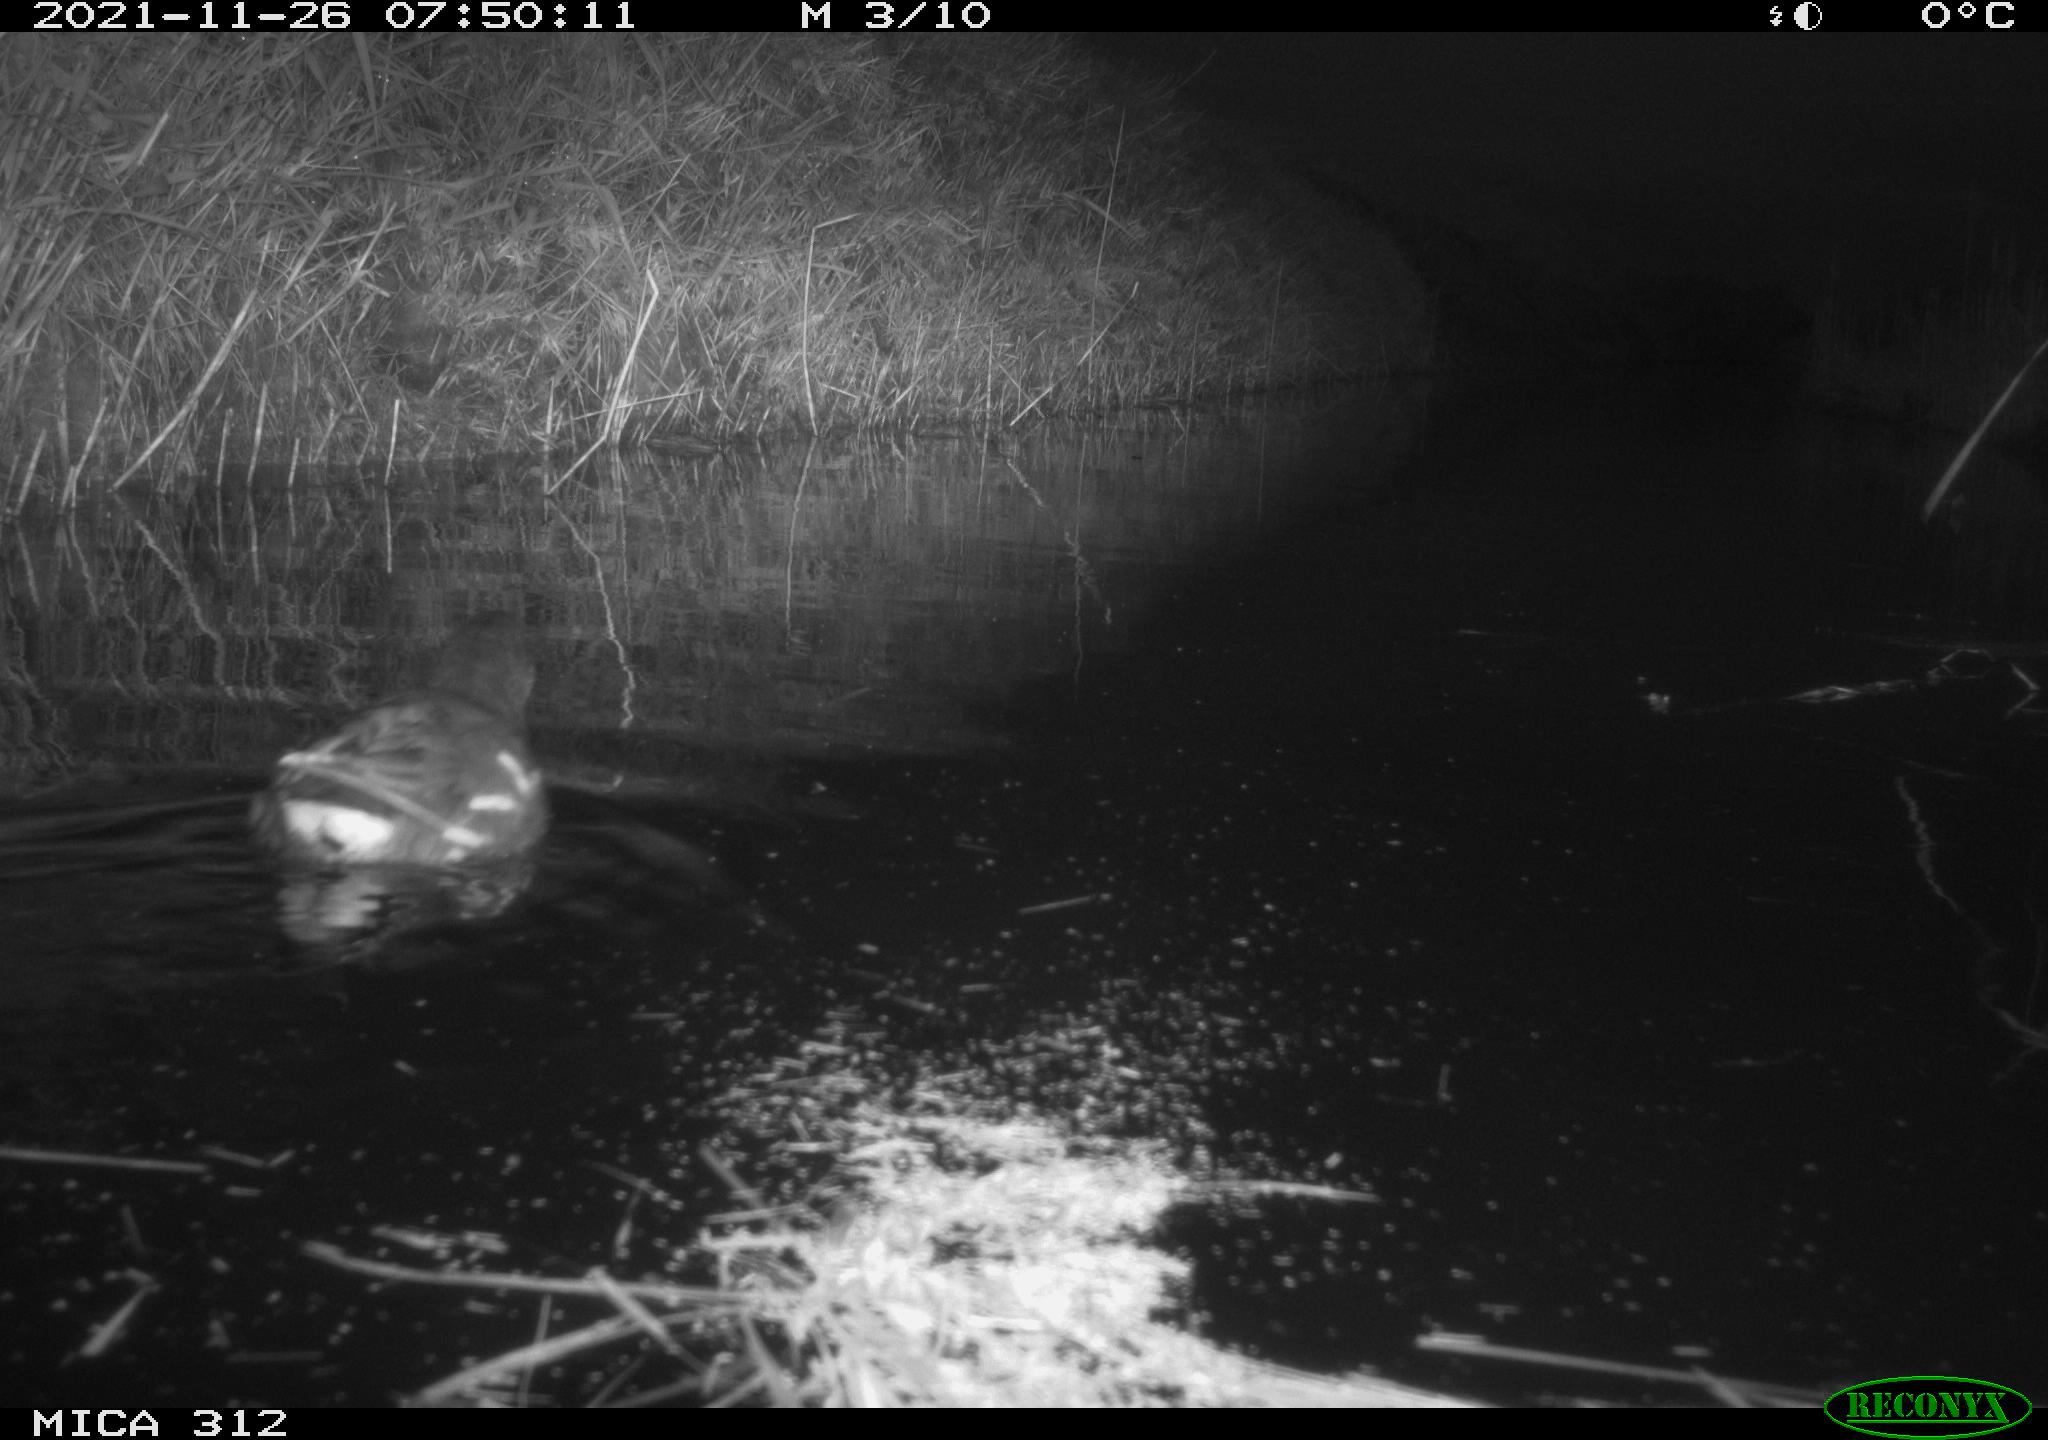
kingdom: Animalia
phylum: Chordata
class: Aves
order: Gruiformes
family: Rallidae
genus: Gallinula
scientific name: Gallinula chloropus
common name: Common moorhen
